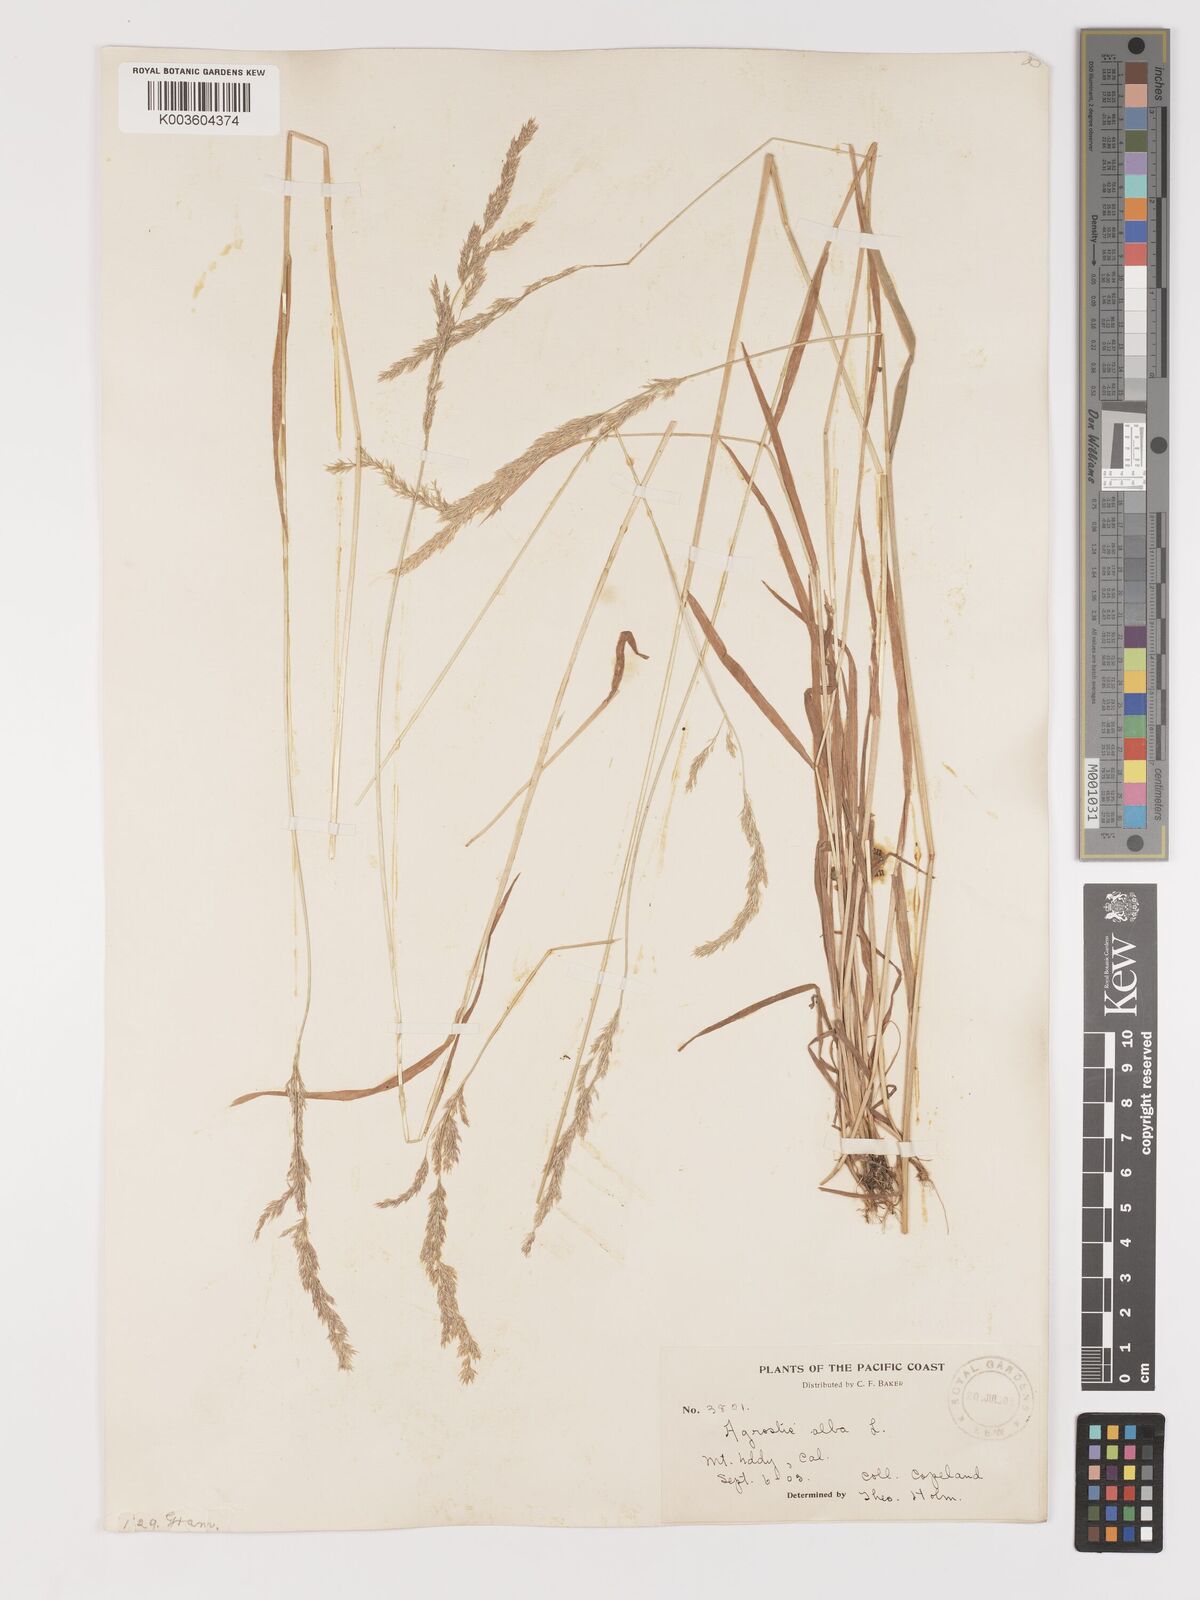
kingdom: Plantae
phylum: Tracheophyta
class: Liliopsida
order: Poales
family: Poaceae
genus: Agrostis
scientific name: Agrostis exarata
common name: Spike bent
